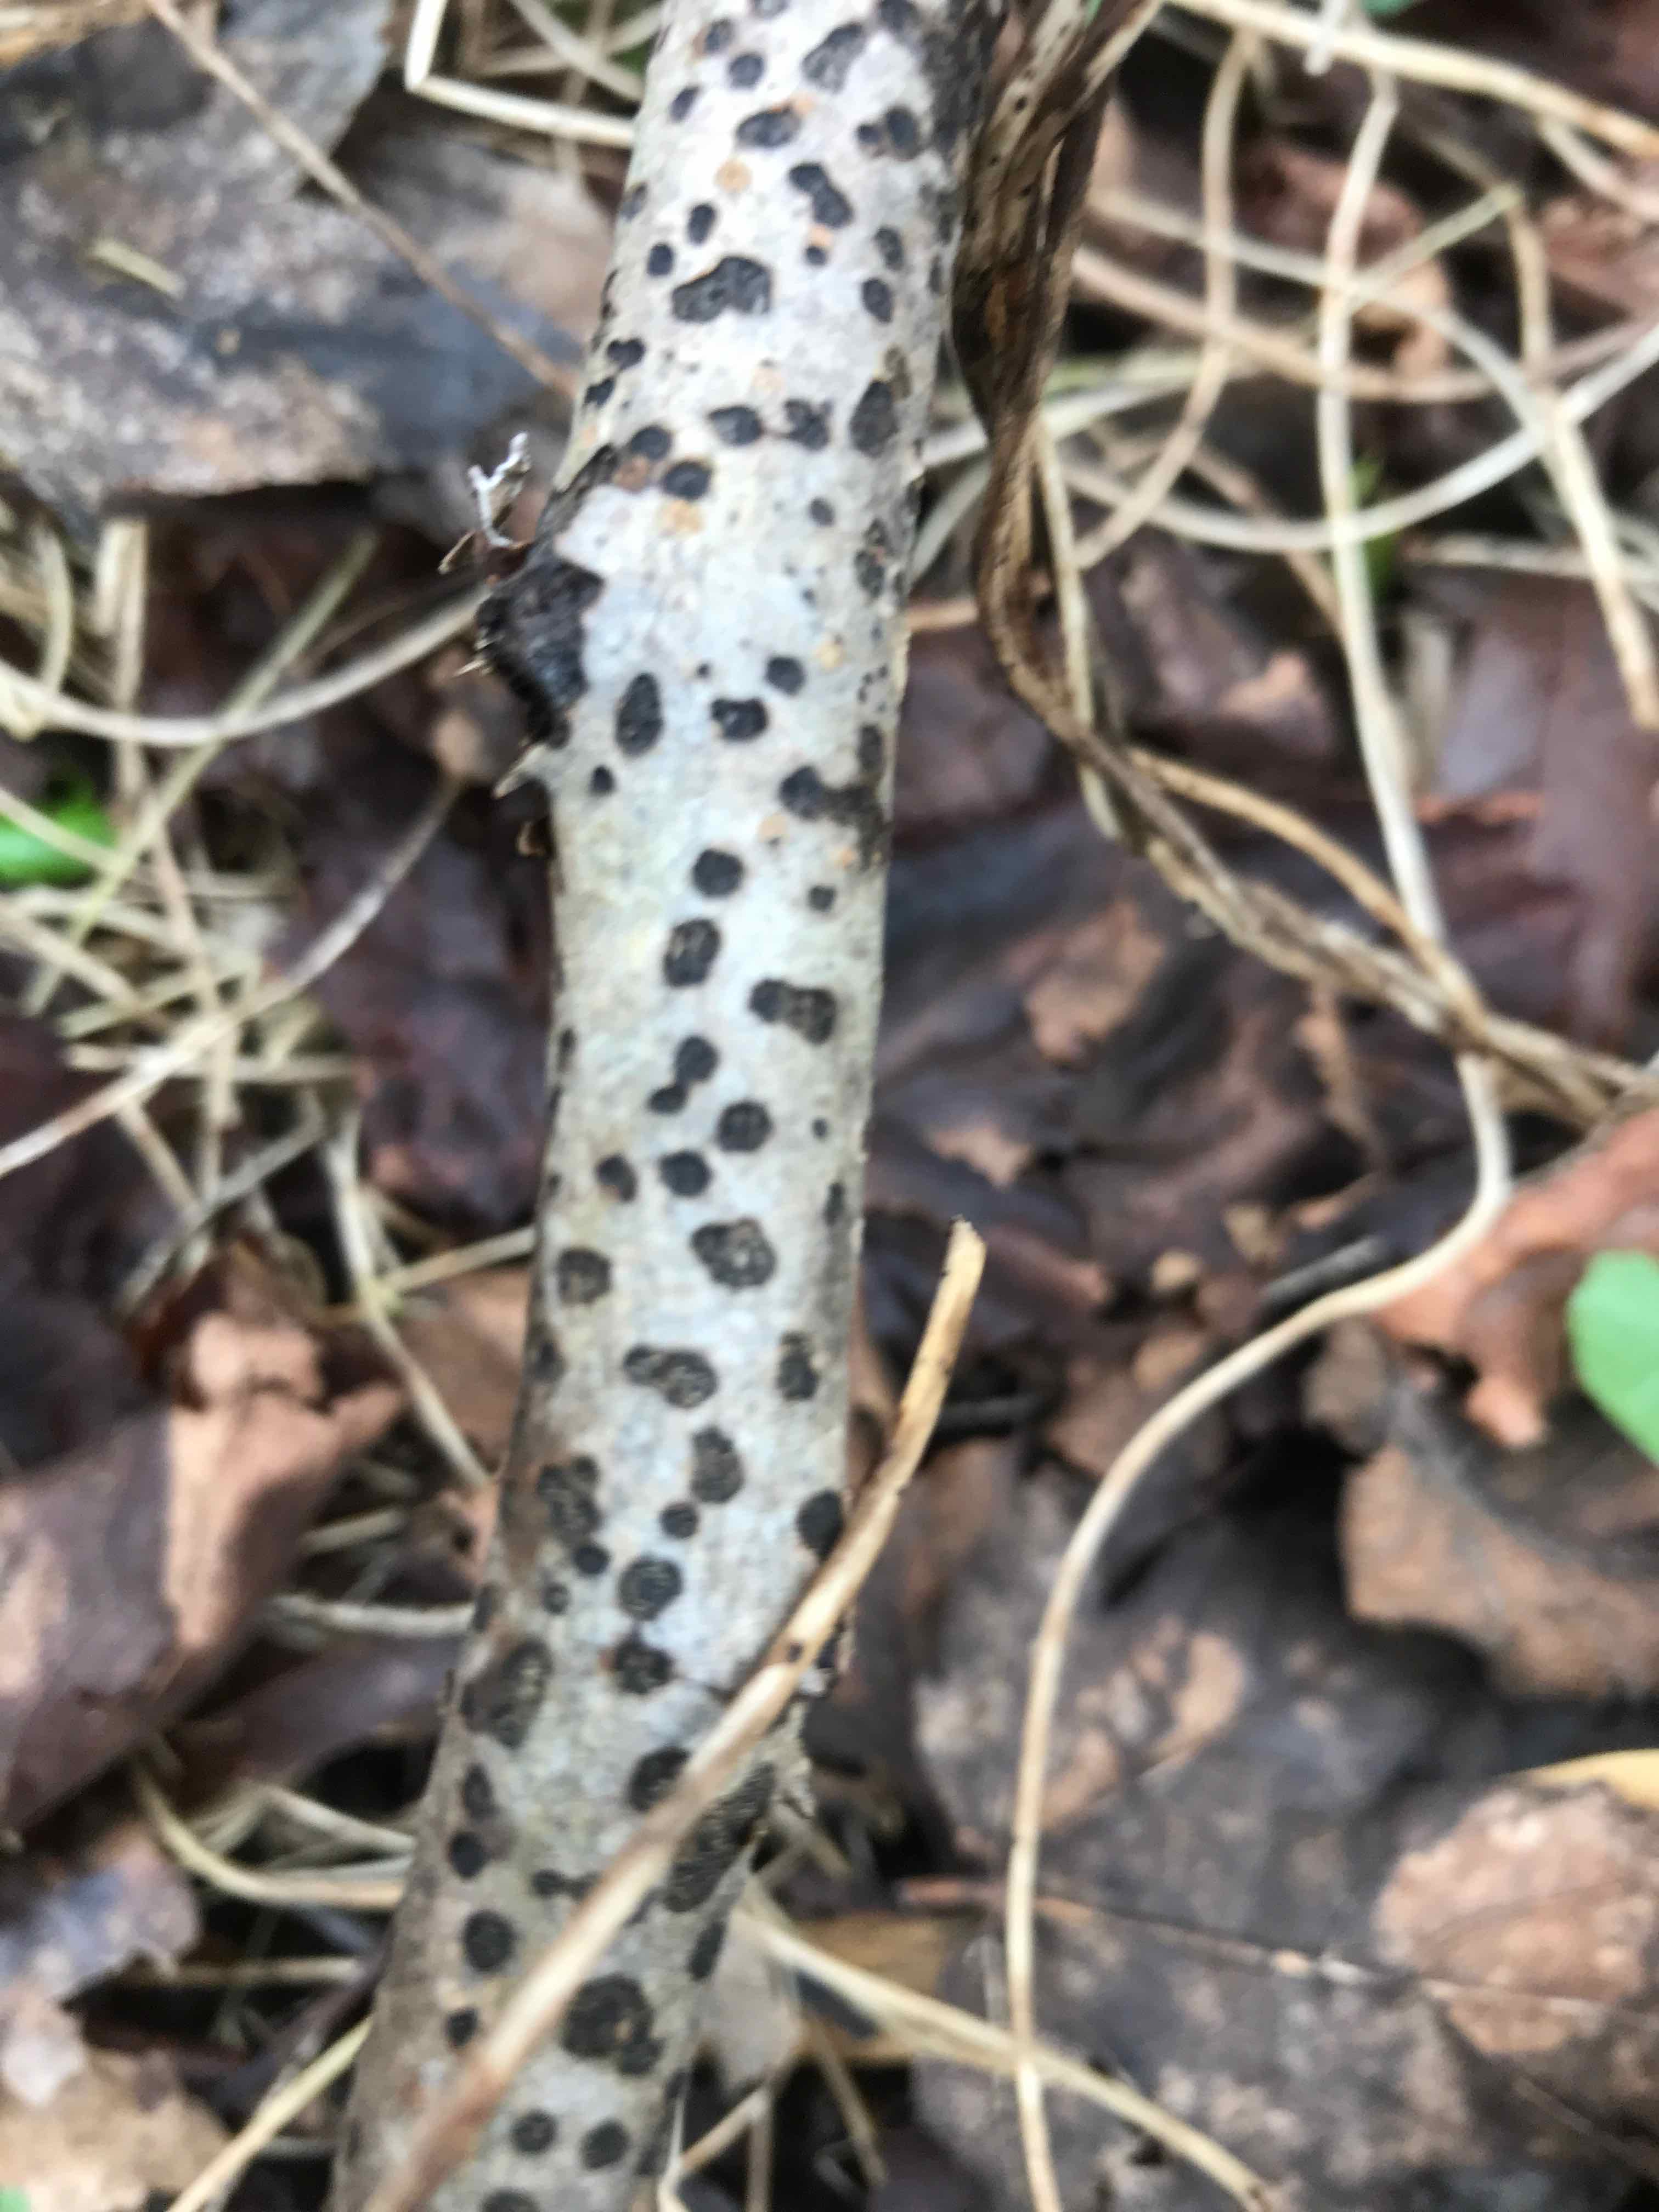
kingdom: Fungi
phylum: Ascomycota
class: Sordariomycetes
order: Xylariales
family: Diatrypaceae
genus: Diatrype
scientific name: Diatrype bullata
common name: pile-kulskorpe
